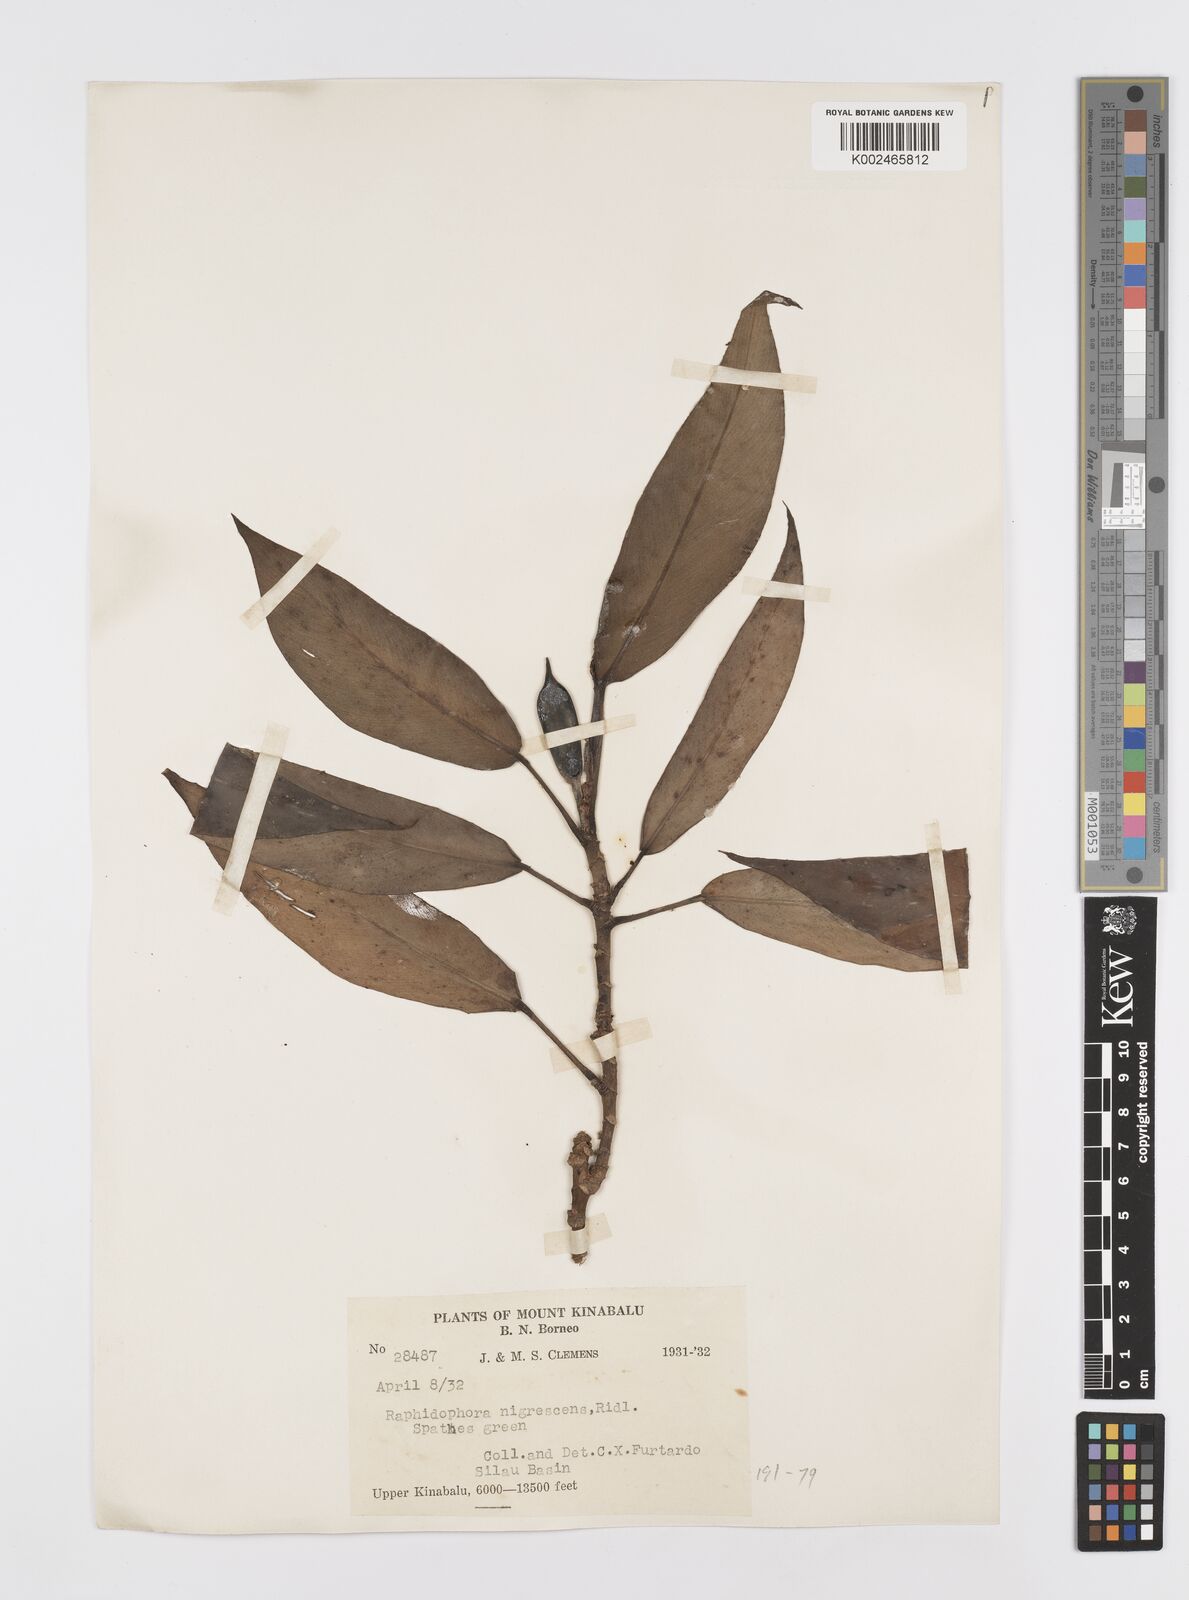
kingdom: Plantae
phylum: Tracheophyta
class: Liliopsida
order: Alismatales
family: Araceae
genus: Rhaphidophora
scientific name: Rhaphidophora sylvestris
